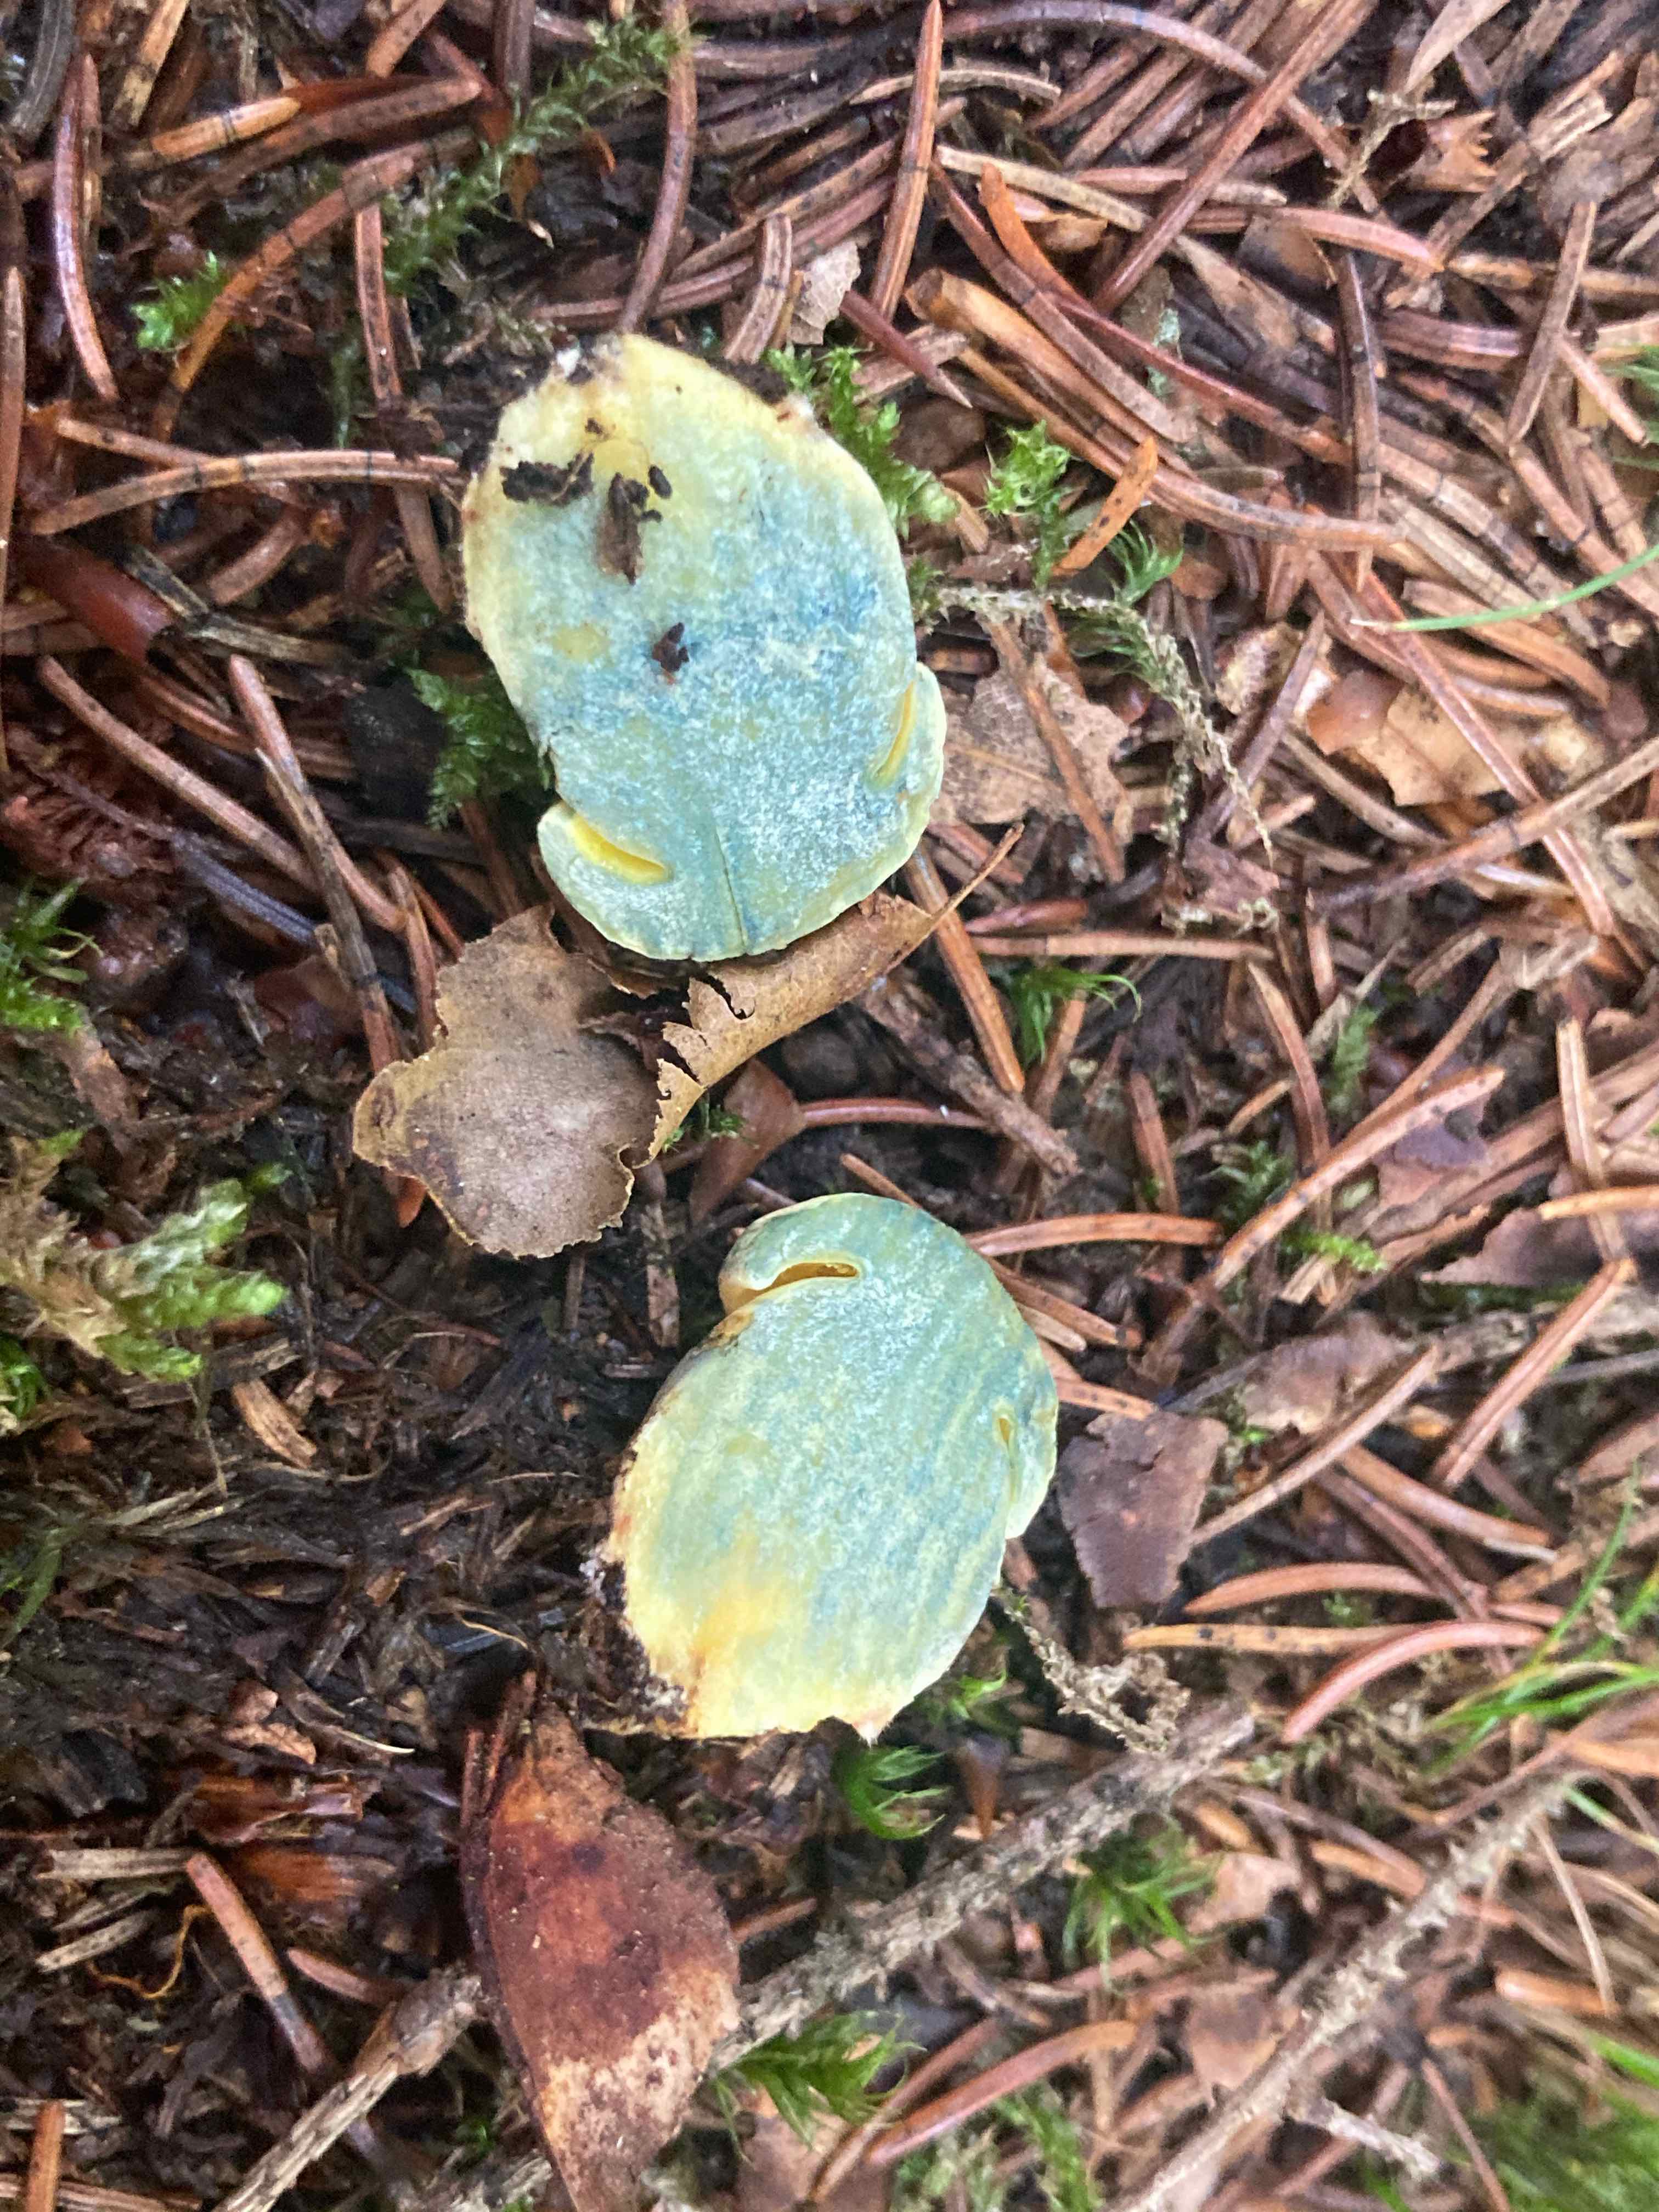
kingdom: Fungi
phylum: Basidiomycota
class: Agaricomycetes
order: Boletales
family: Boletaceae
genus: Neoboletus
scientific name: Neoboletus praestigiator
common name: gul indigorørhat
